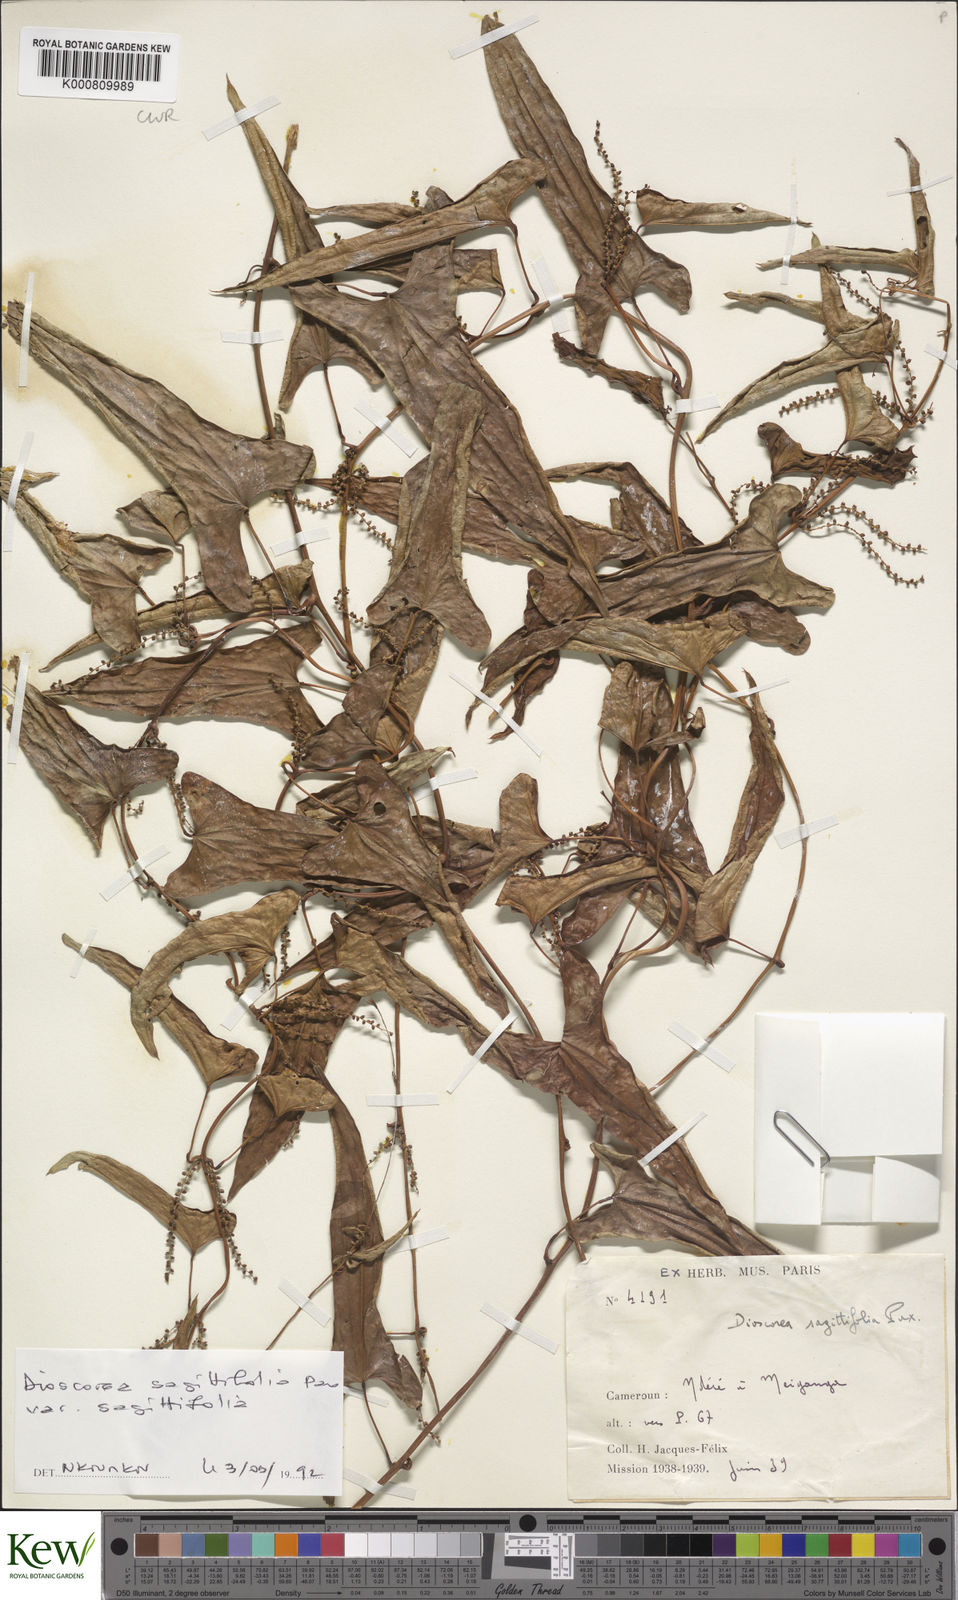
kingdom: Plantae
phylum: Tracheophyta
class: Liliopsida
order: Dioscoreales
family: Dioscoreaceae
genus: Dioscorea
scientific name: Dioscorea sagittifolia
